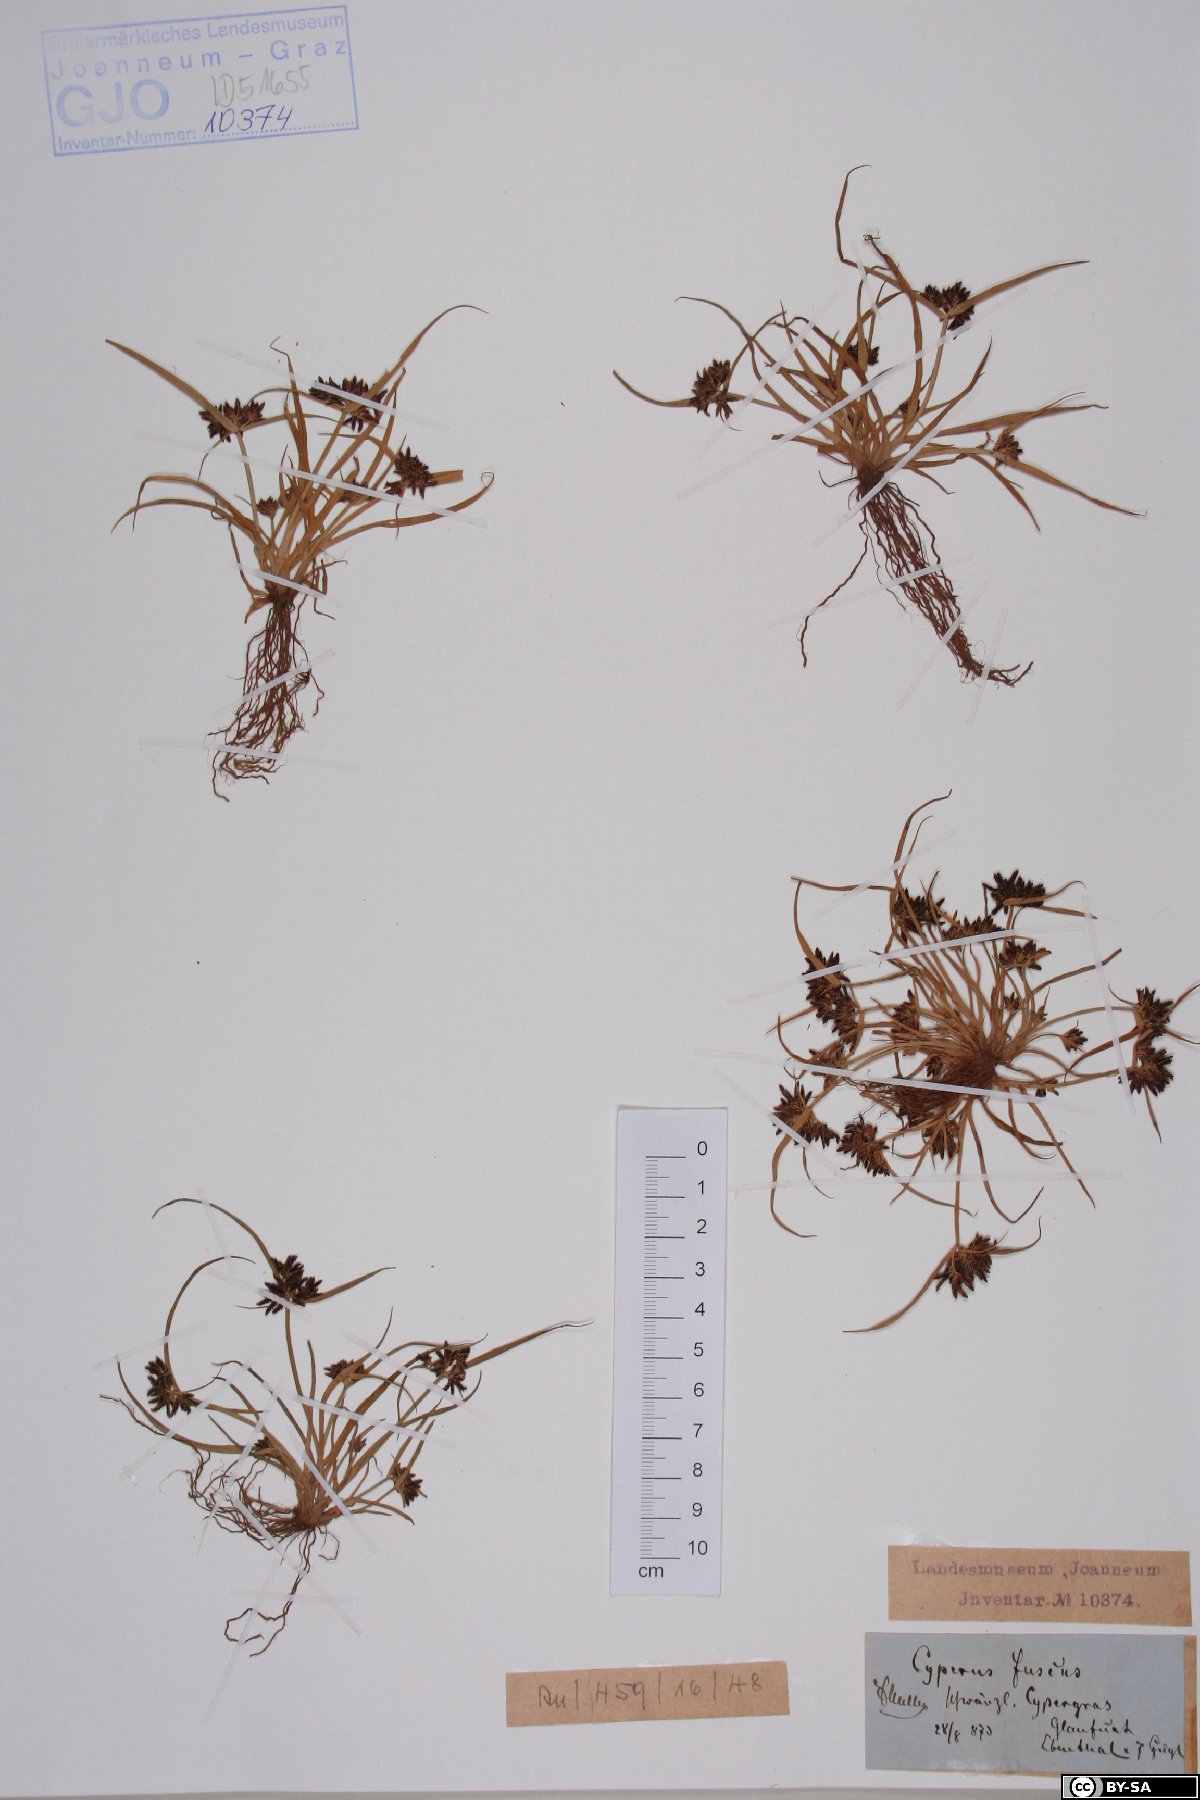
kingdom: Plantae
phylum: Tracheophyta
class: Liliopsida
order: Poales
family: Cyperaceae
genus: Cyperus
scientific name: Cyperus fuscus
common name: Brown galingale
